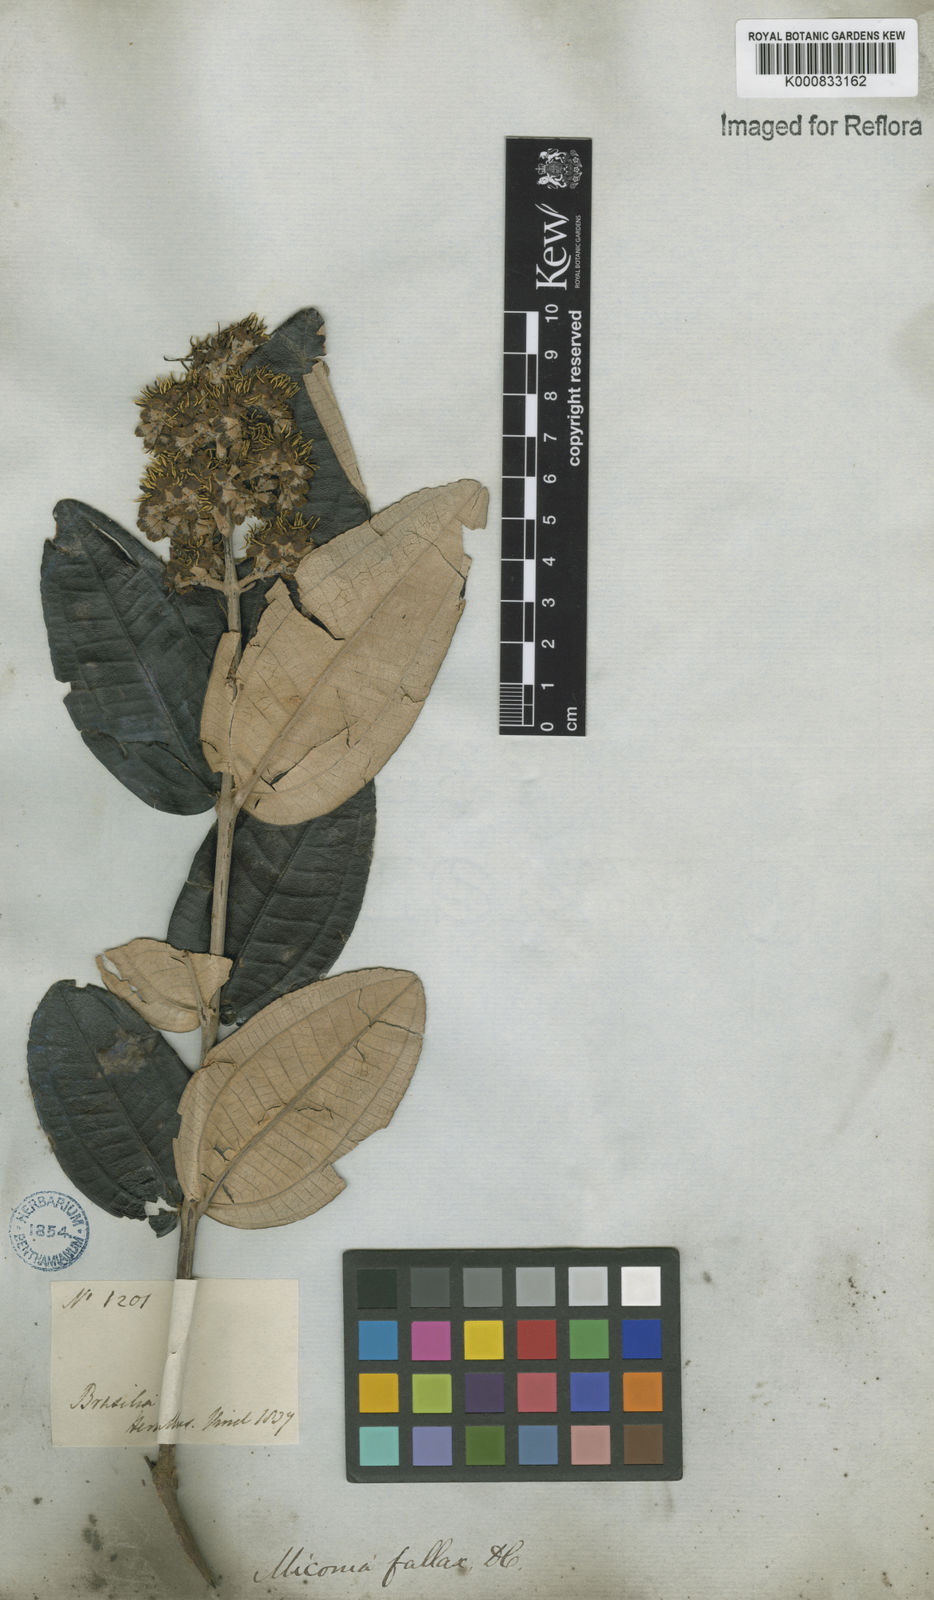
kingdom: Plantae
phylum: Tracheophyta
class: Magnoliopsida
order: Myrtales
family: Melastomataceae
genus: Miconia
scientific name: Miconia fallax
